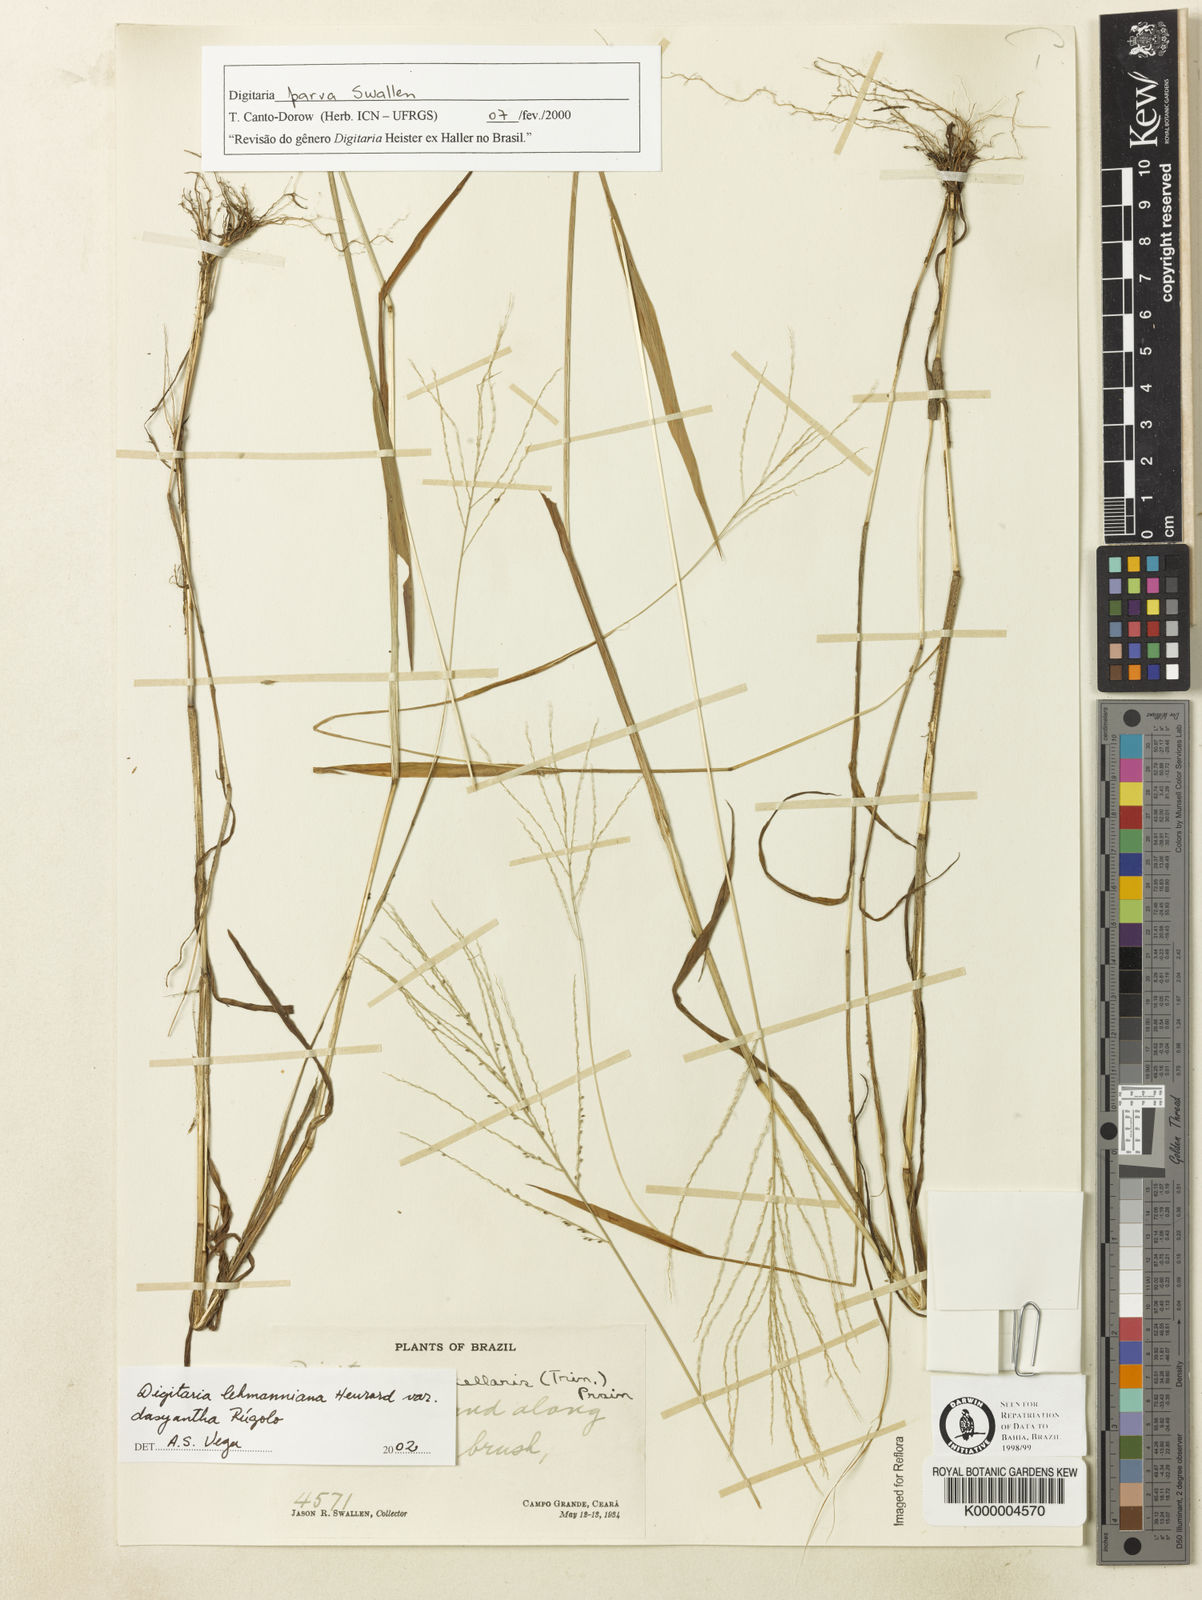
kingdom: Plantae
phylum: Tracheophyta
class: Liliopsida
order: Poales
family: Poaceae
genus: Digitaria
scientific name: Digitaria
